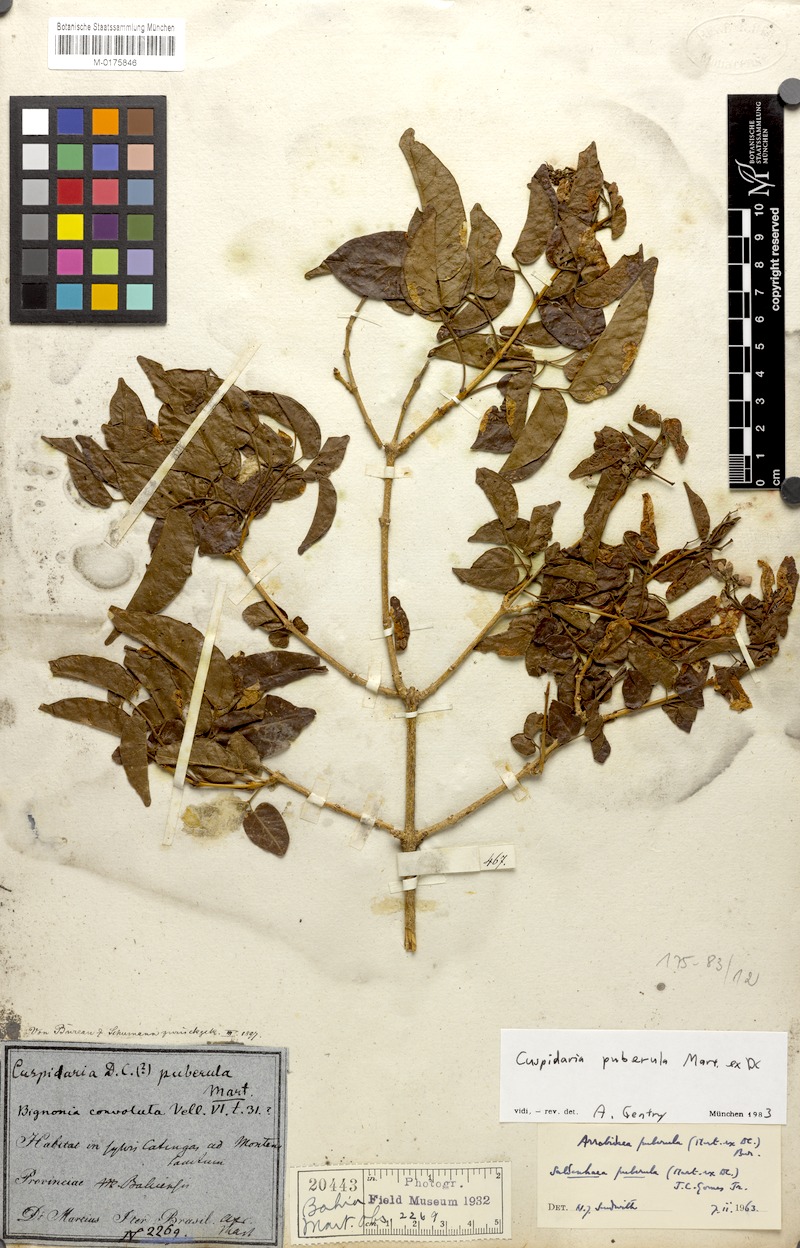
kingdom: Plantae
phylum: Tracheophyta
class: Magnoliopsida
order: Lamiales
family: Bignoniaceae
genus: Cuspidaria
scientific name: Cuspidaria simplicifolia
